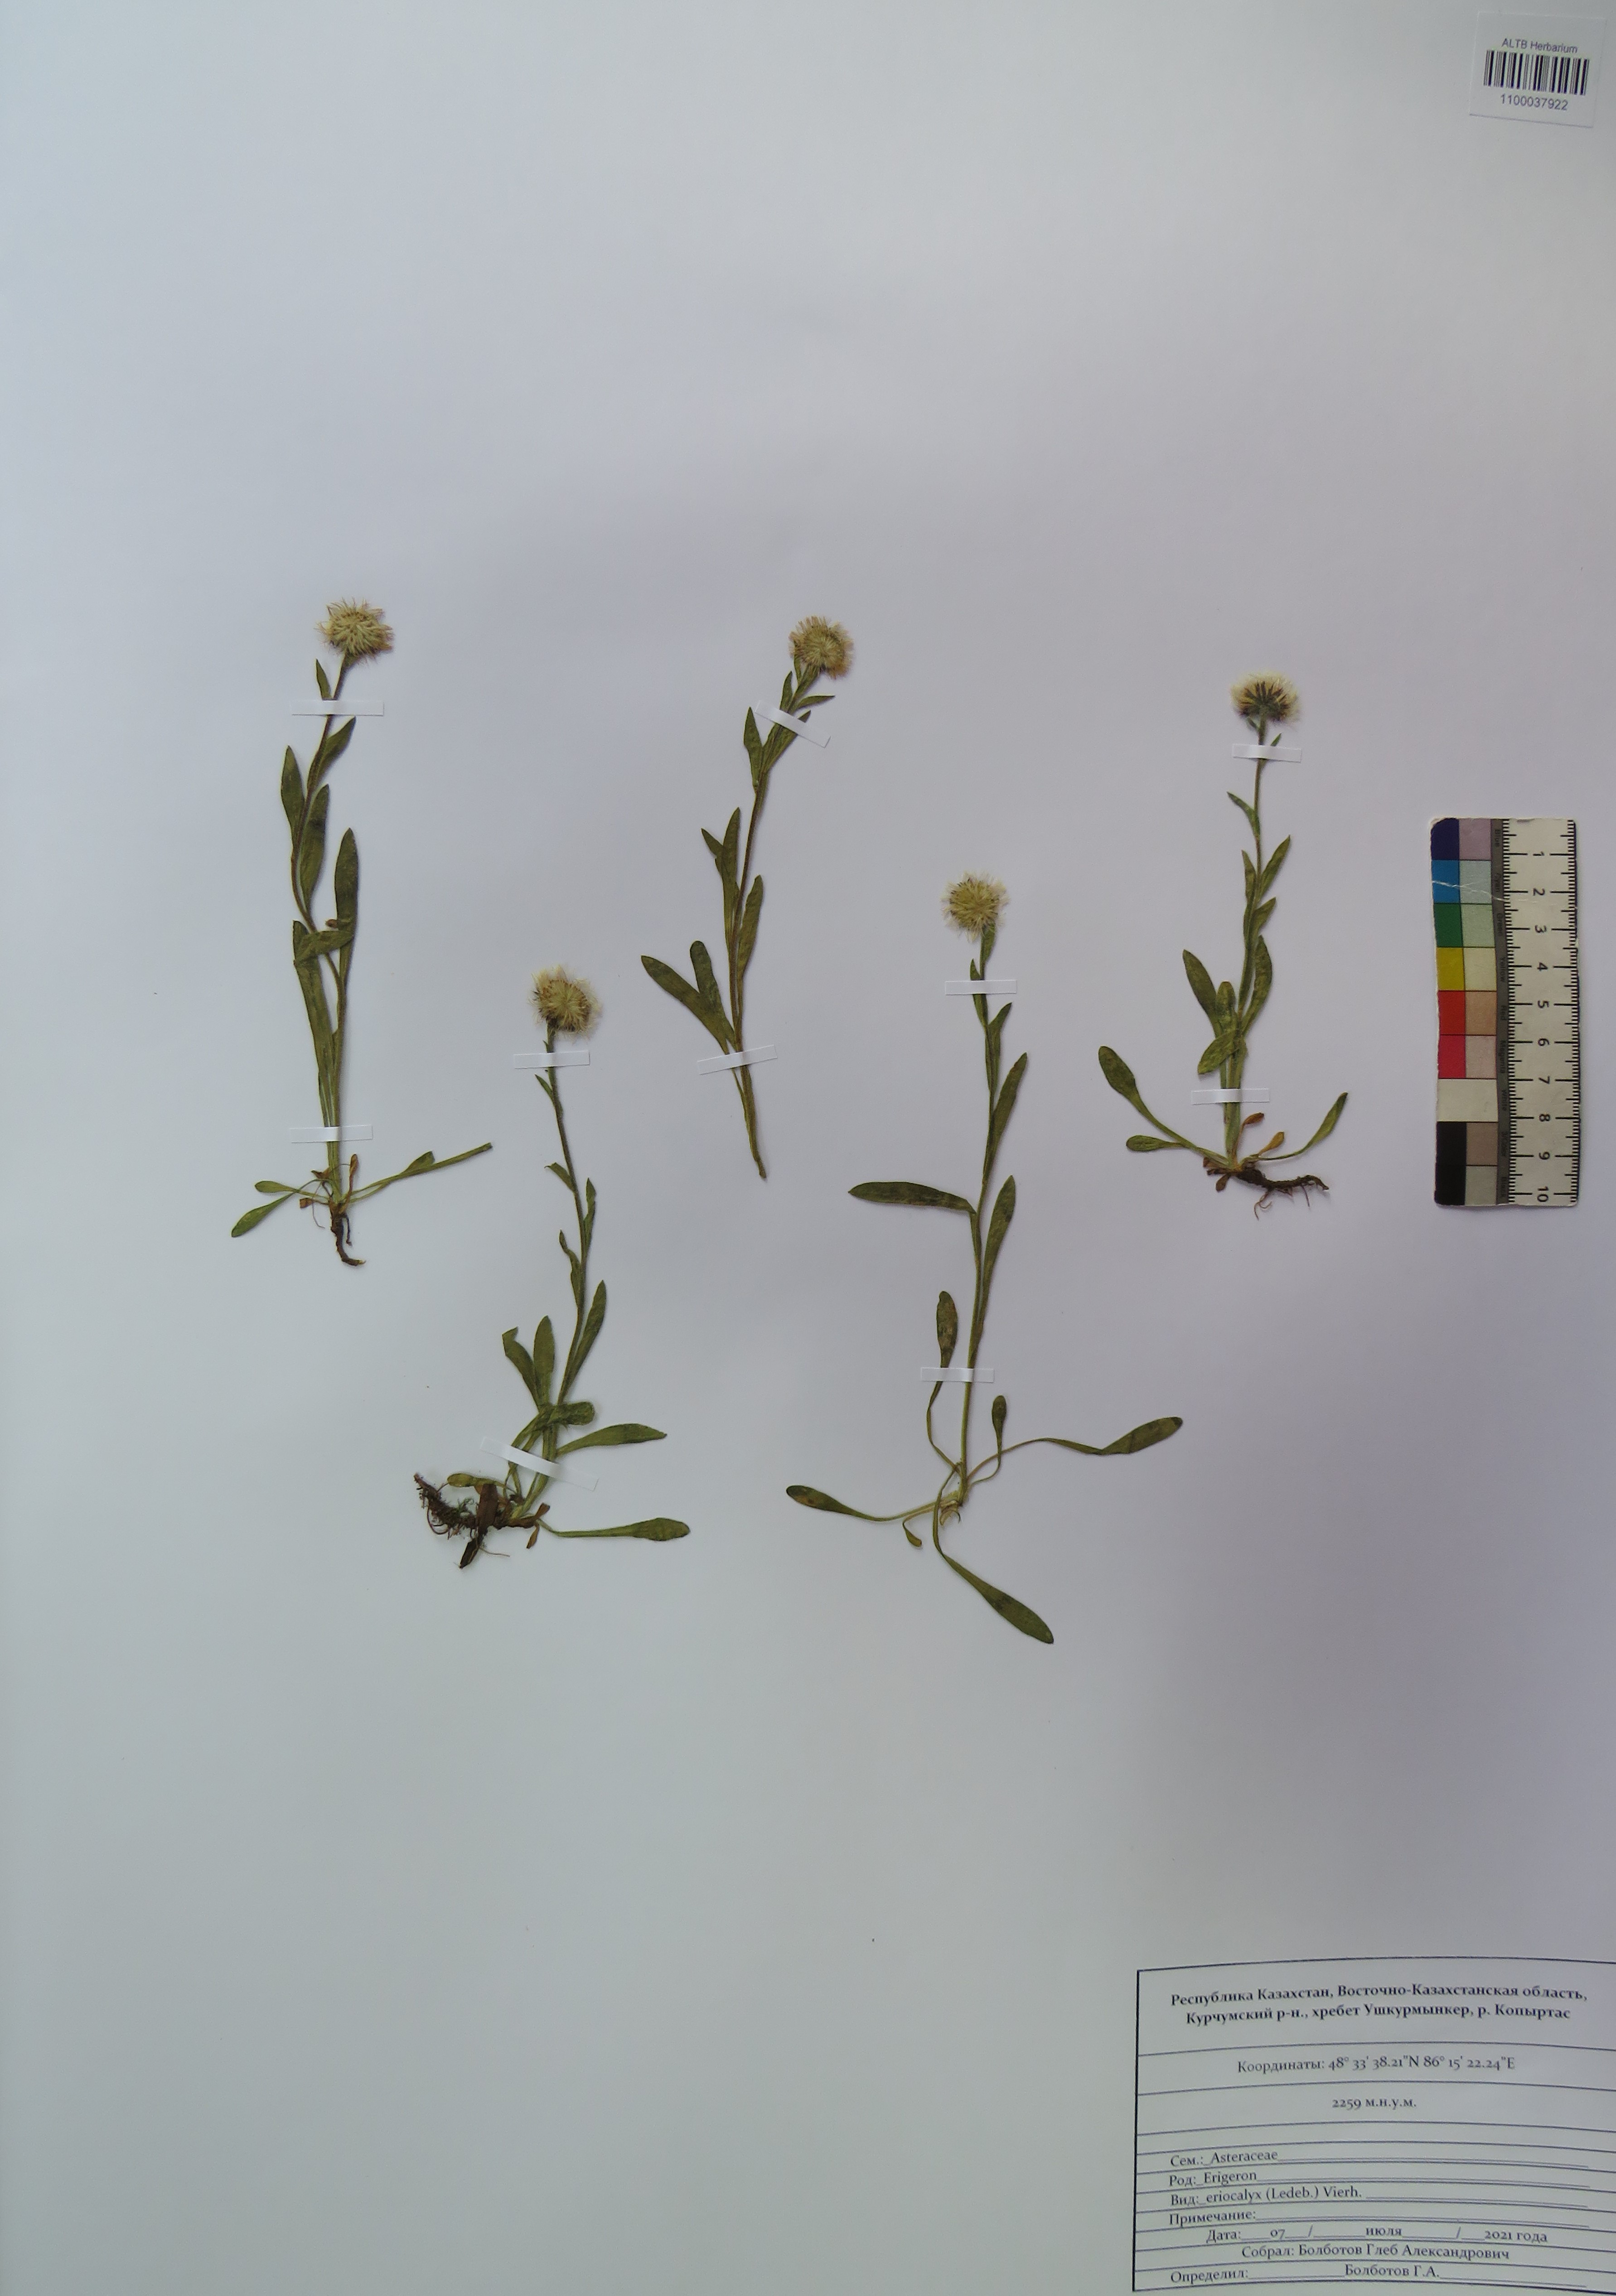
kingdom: Plantae
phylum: Tracheophyta
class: Magnoliopsida
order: Asterales
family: Asteraceae
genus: Erigeron
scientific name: Erigeron eriocalyx
